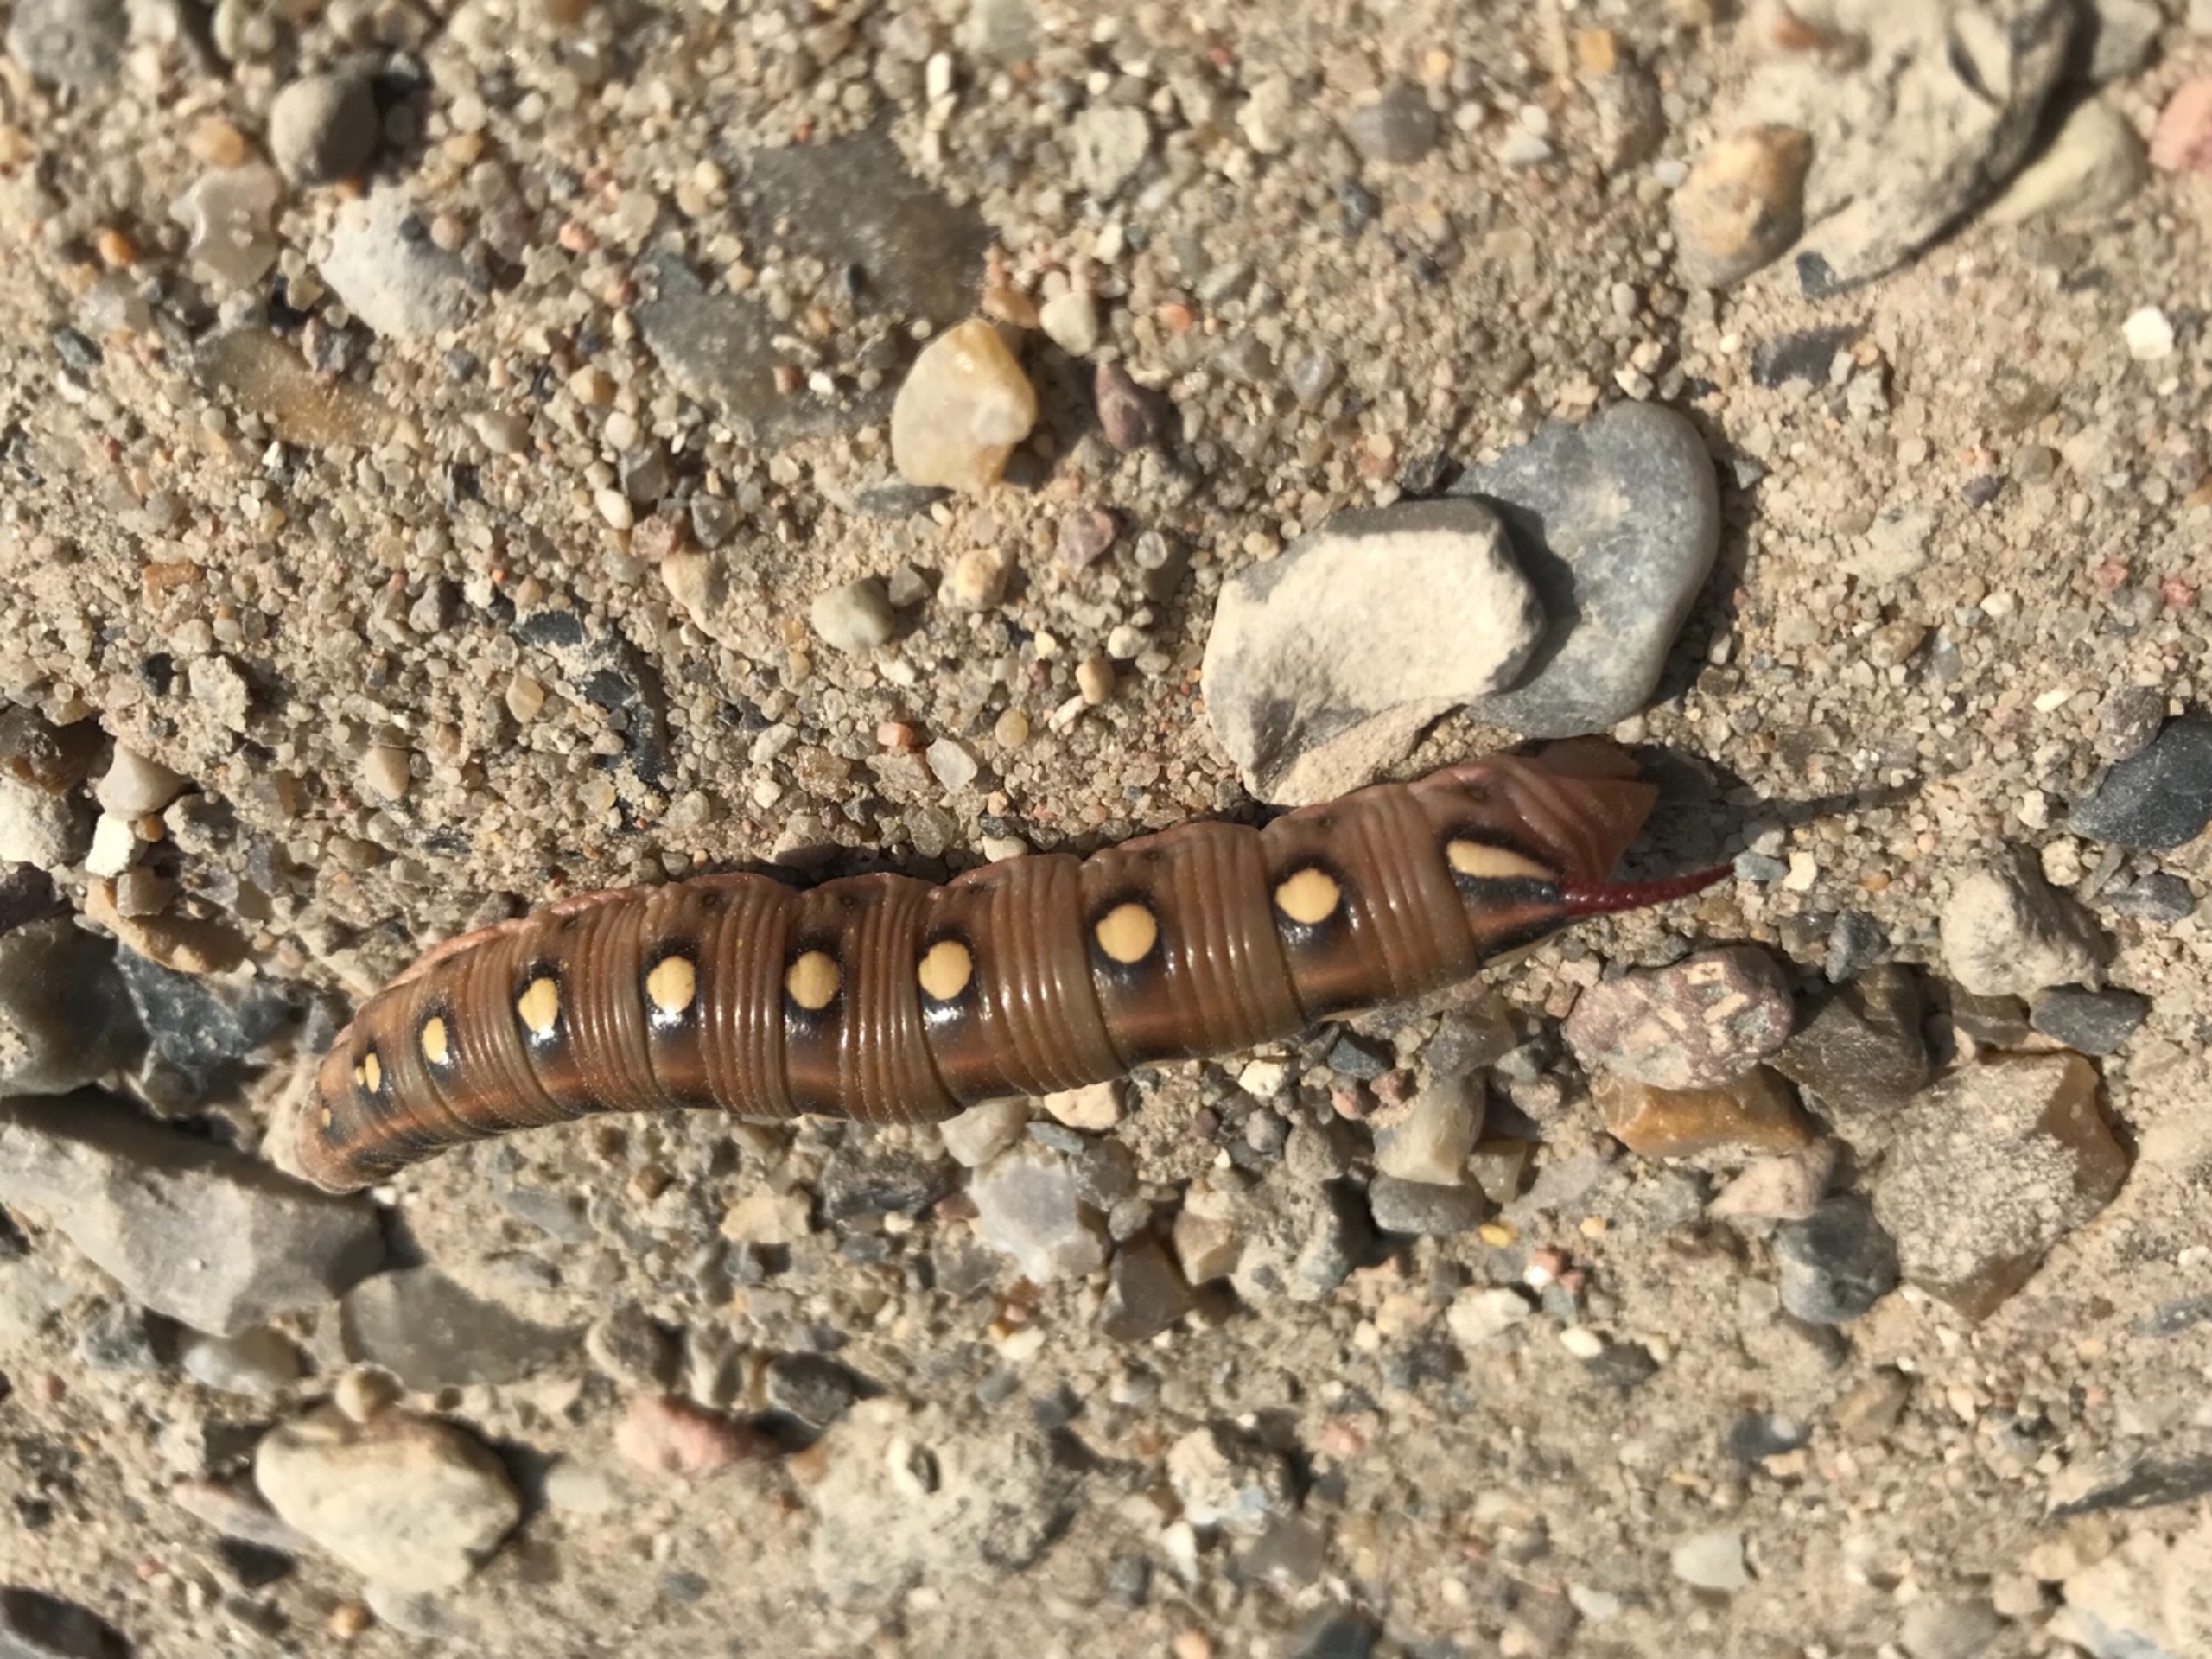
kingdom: Animalia
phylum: Arthropoda
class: Insecta
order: Lepidoptera
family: Sphingidae
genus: Hyles
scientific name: Hyles gallii
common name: Snerresværmer
